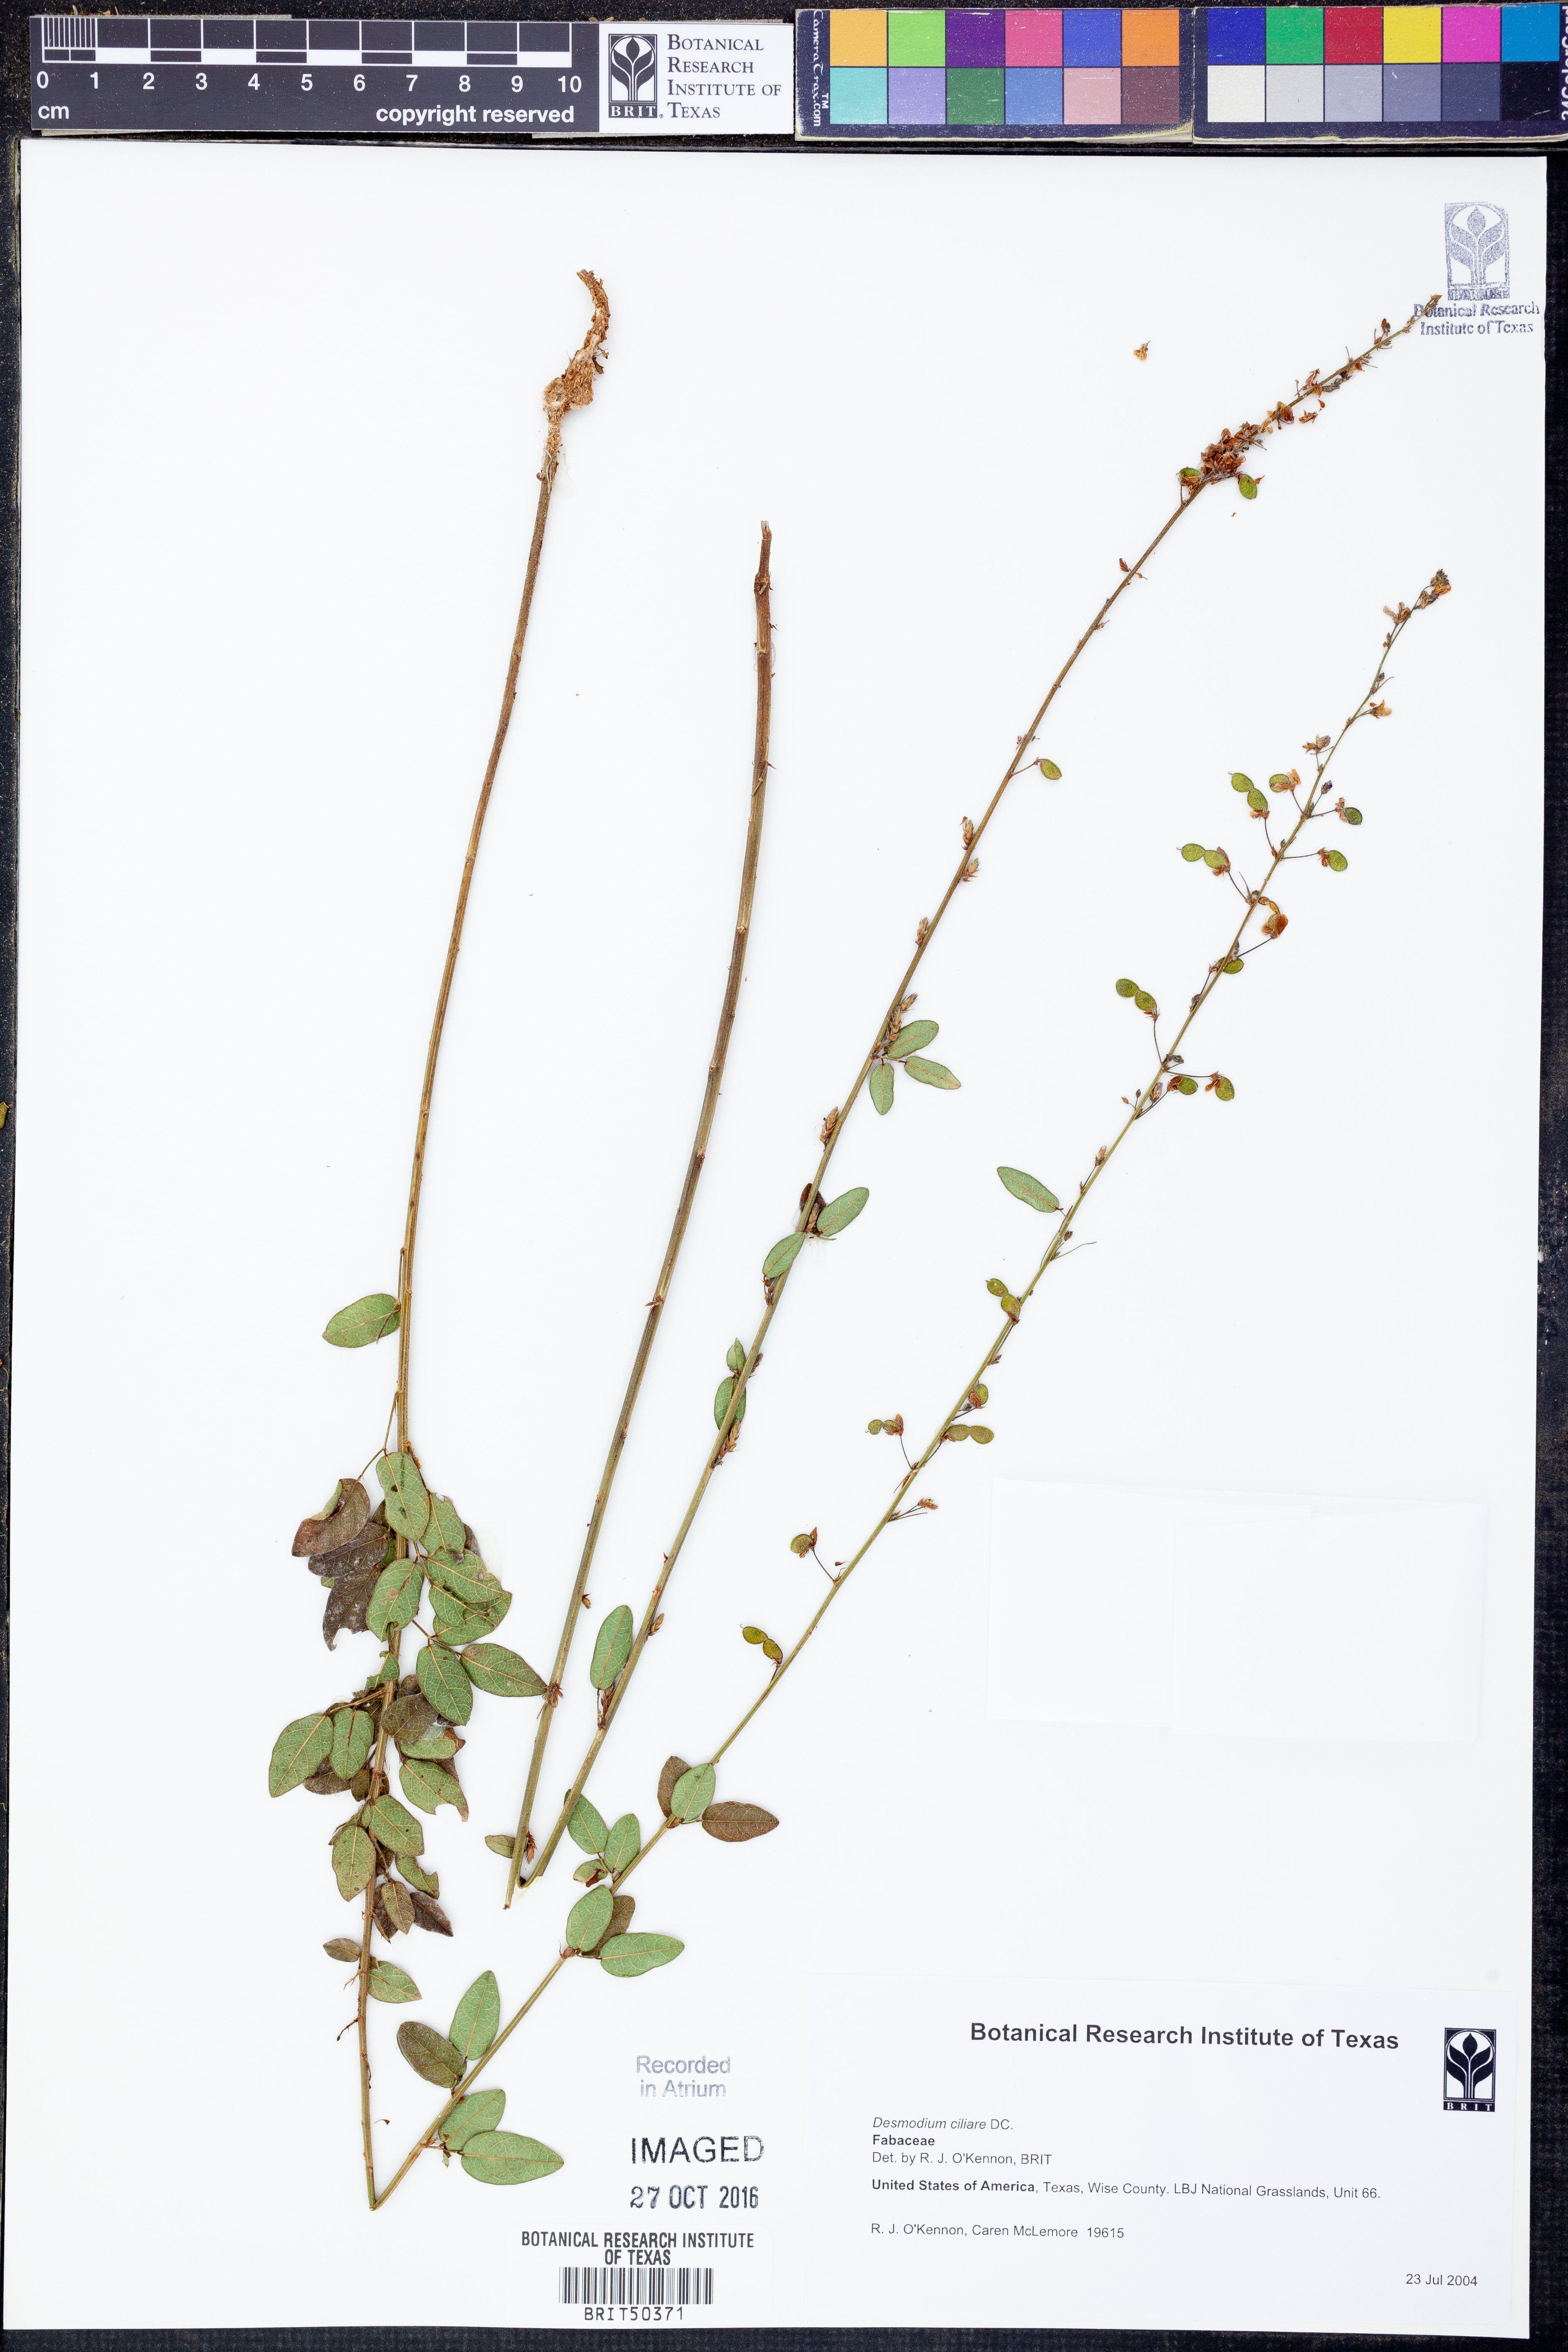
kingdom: Plantae
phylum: Tracheophyta
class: Magnoliopsida
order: Fabales
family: Fabaceae
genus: Desmodium
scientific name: Desmodium ciliare
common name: Hairy small-leaf ticktrefoil
